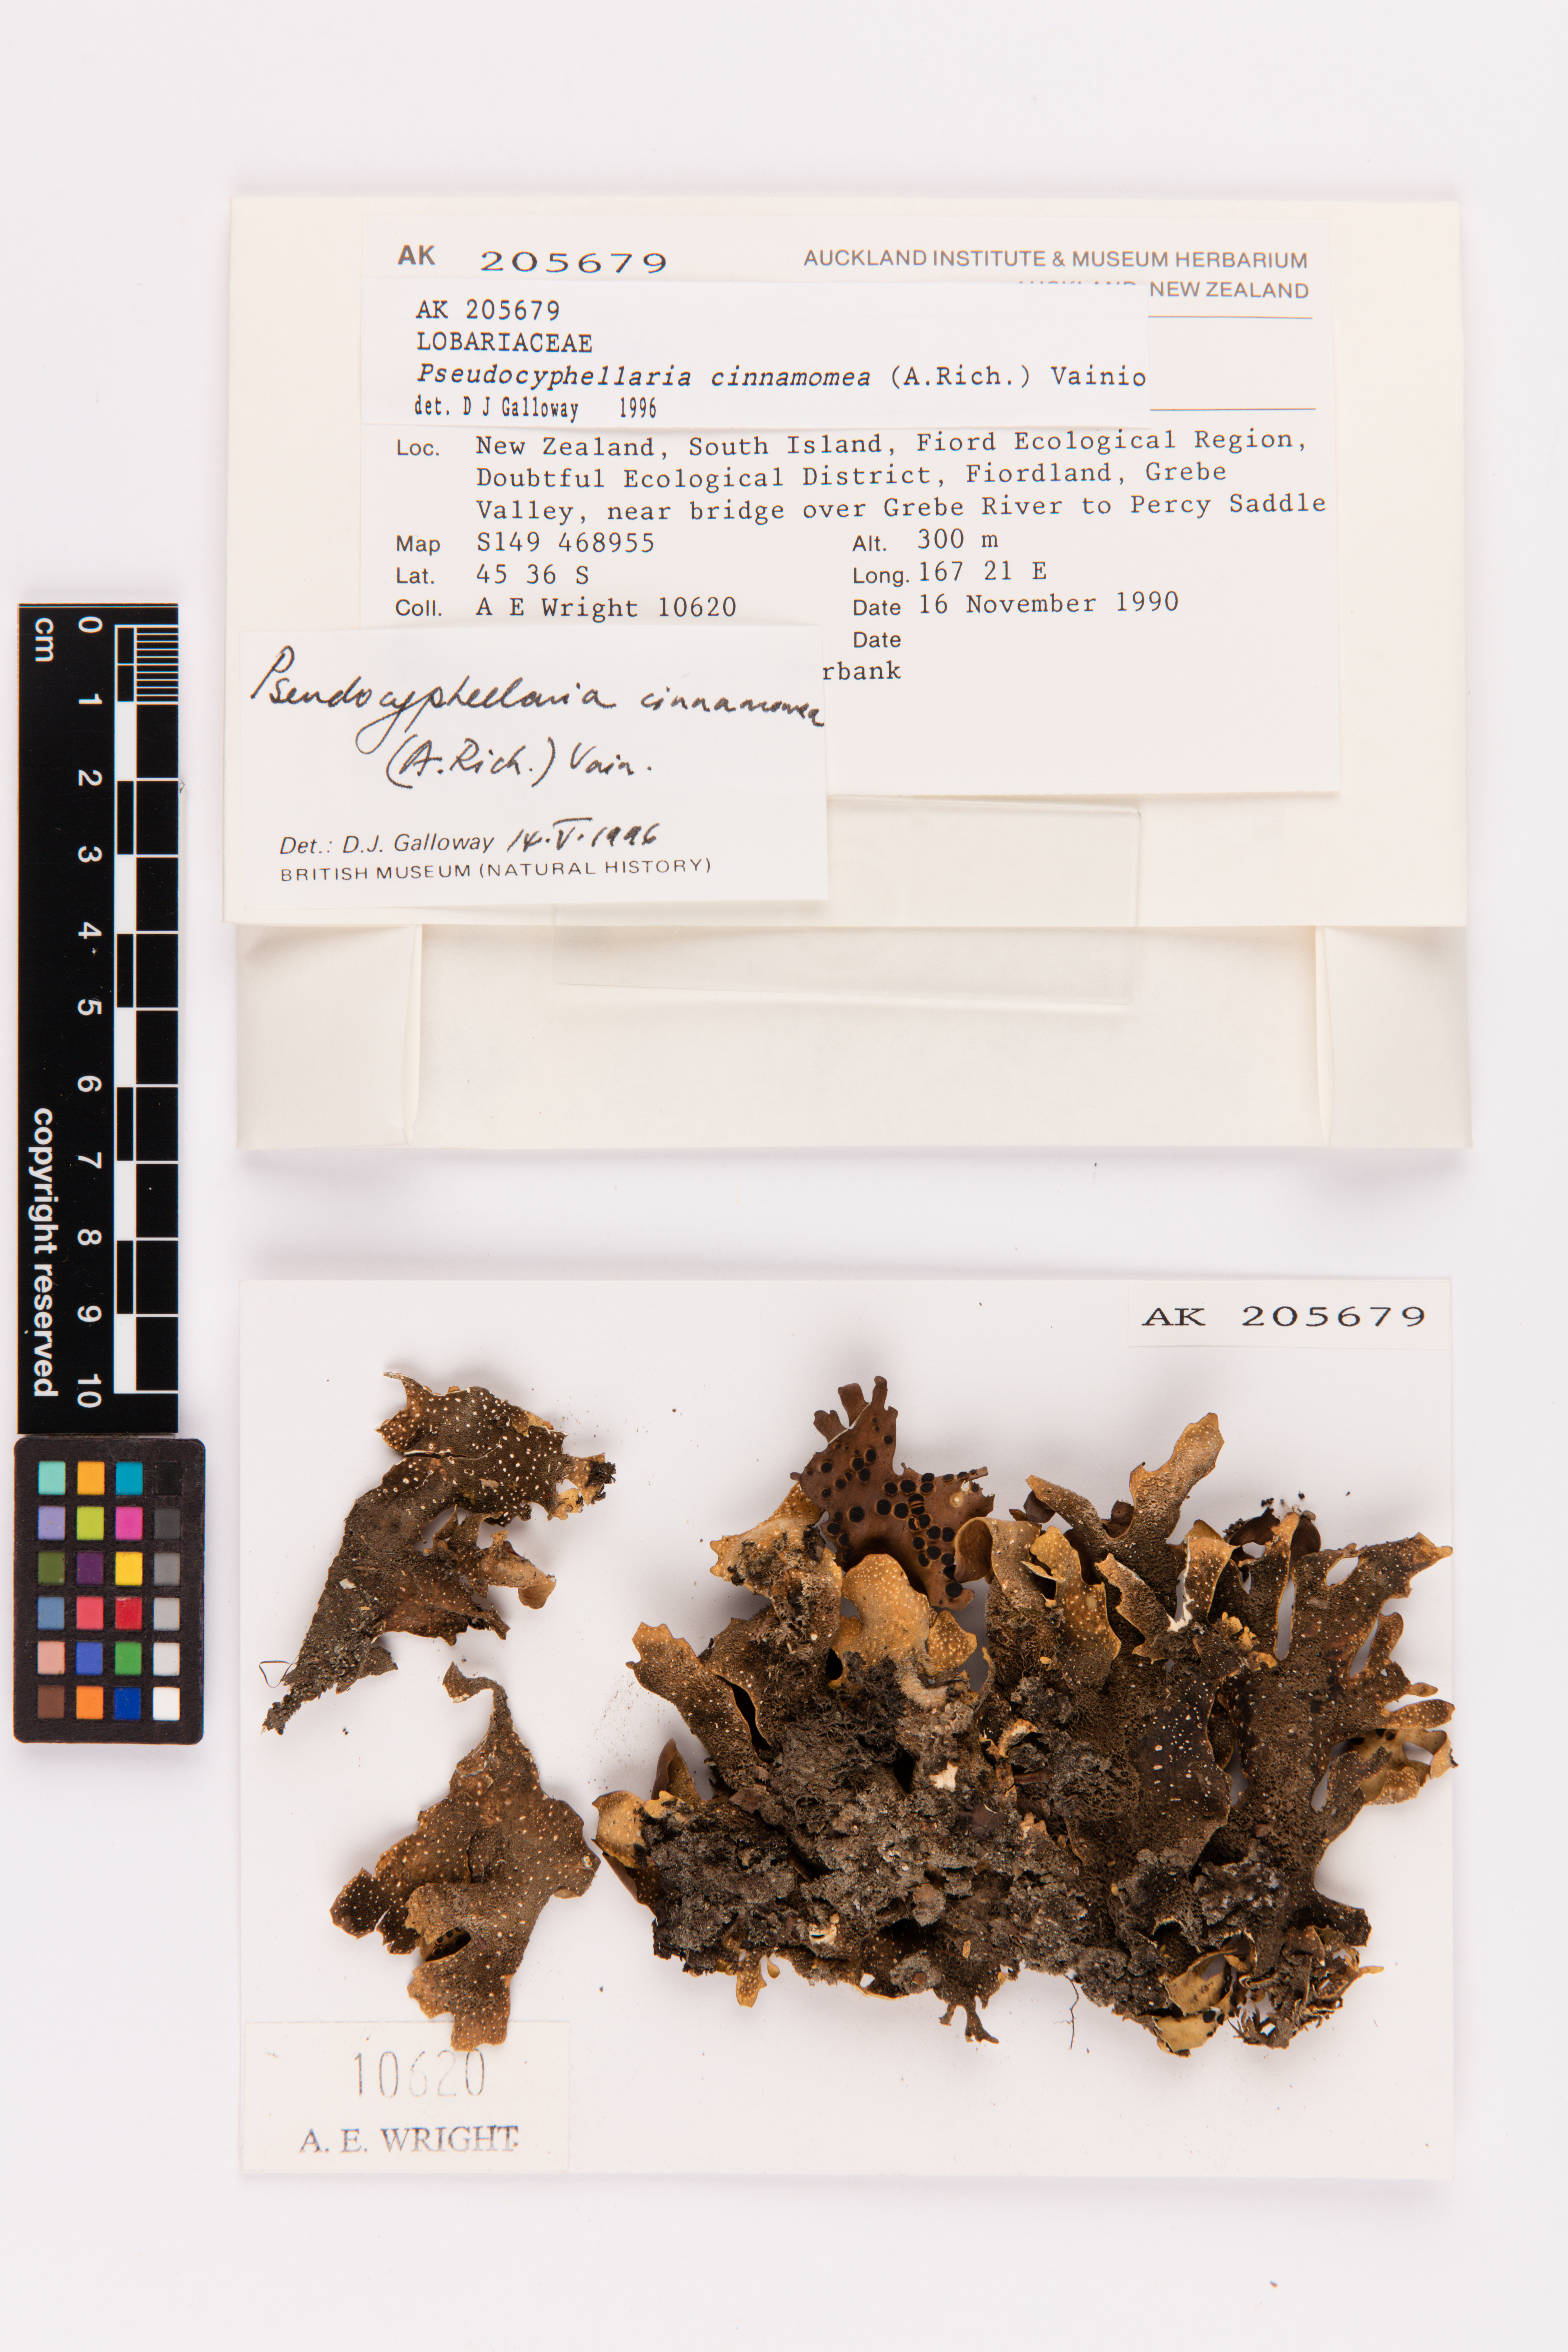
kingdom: Fungi
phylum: Ascomycota
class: Lecanoromycetes
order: Peltigerales
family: Lobariaceae
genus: Pseudocyphellaria
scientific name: Pseudocyphellaria cinnamomea
